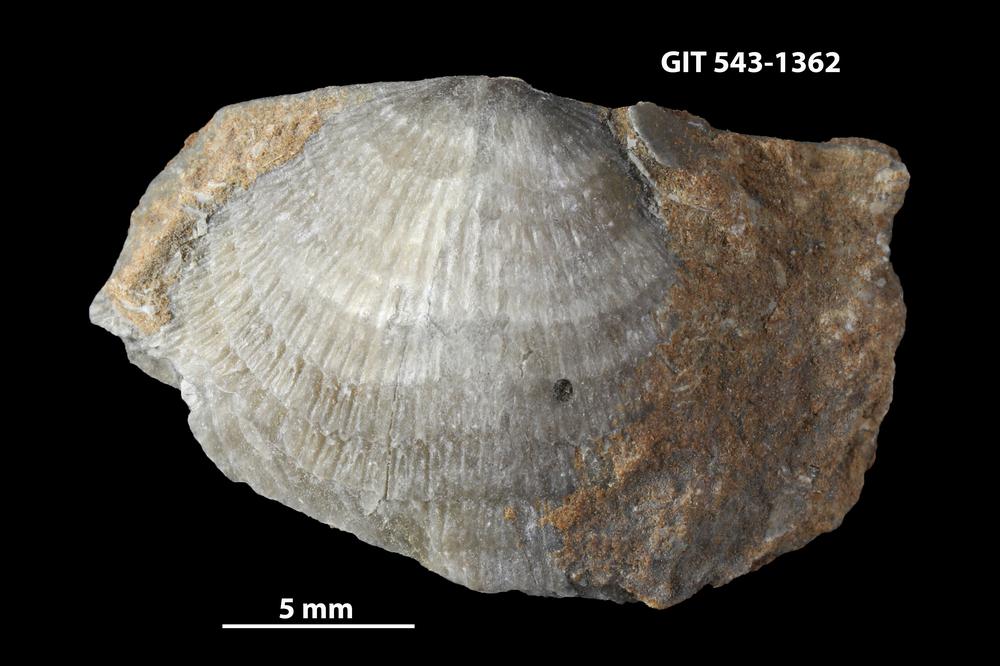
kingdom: Animalia
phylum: Brachiopoda
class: Rhynchonellata
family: Clitambonitidae
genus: Clitambonites
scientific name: Clitambonites Orthisina schmidti
